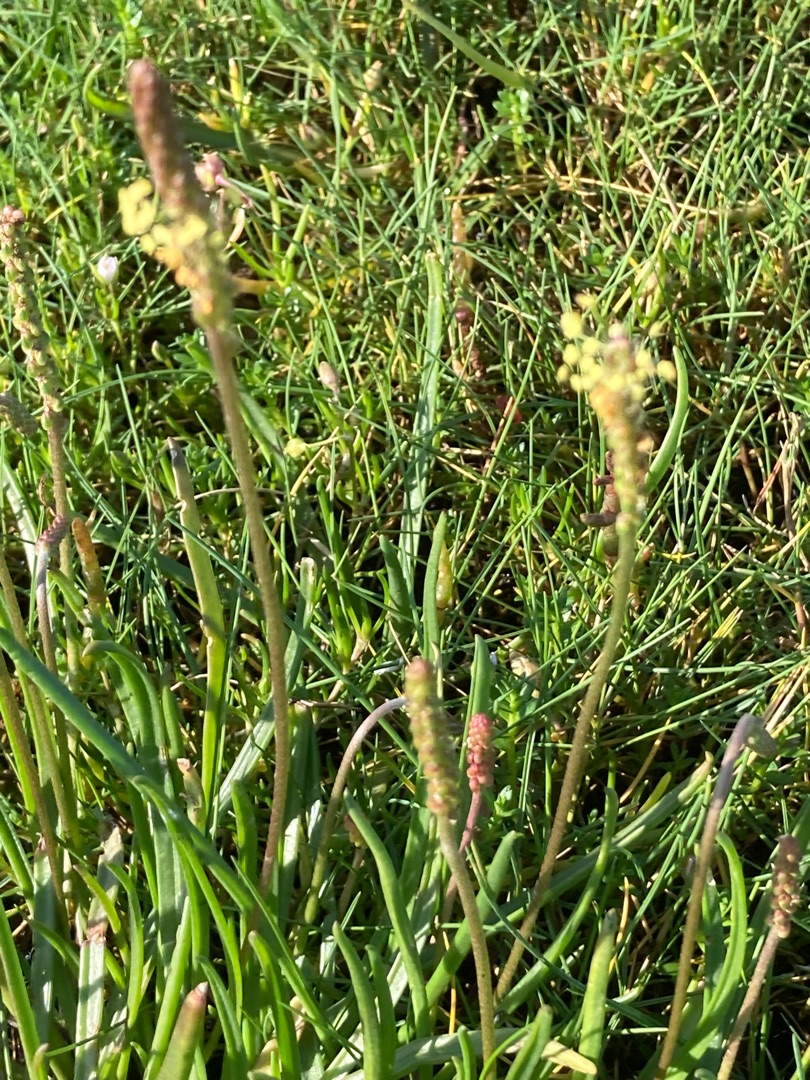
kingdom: Plantae
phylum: Tracheophyta
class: Magnoliopsida
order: Lamiales
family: Plantaginaceae
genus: Plantago
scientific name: Plantago maritima
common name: Strand-vejbred
